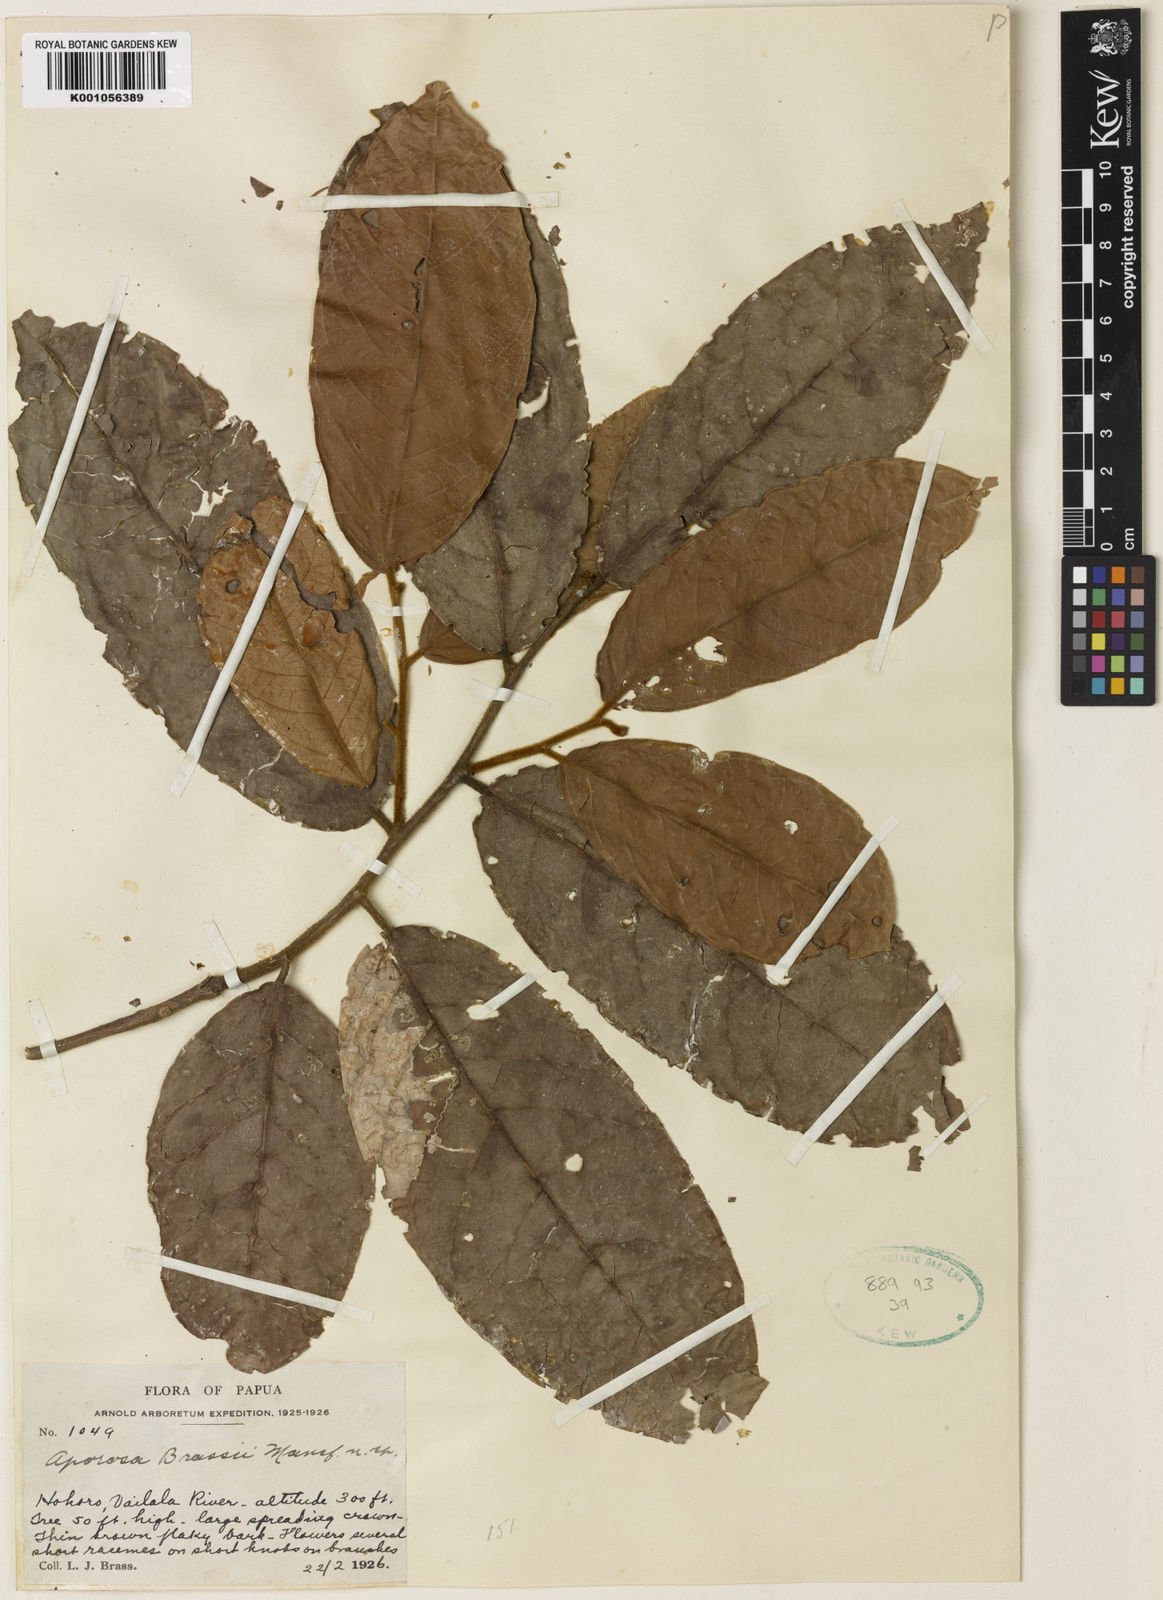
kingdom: Plantae
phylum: Tracheophyta
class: Magnoliopsida
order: Malpighiales
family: Phyllanthaceae
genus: Aporosa
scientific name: Aporosa brassii
